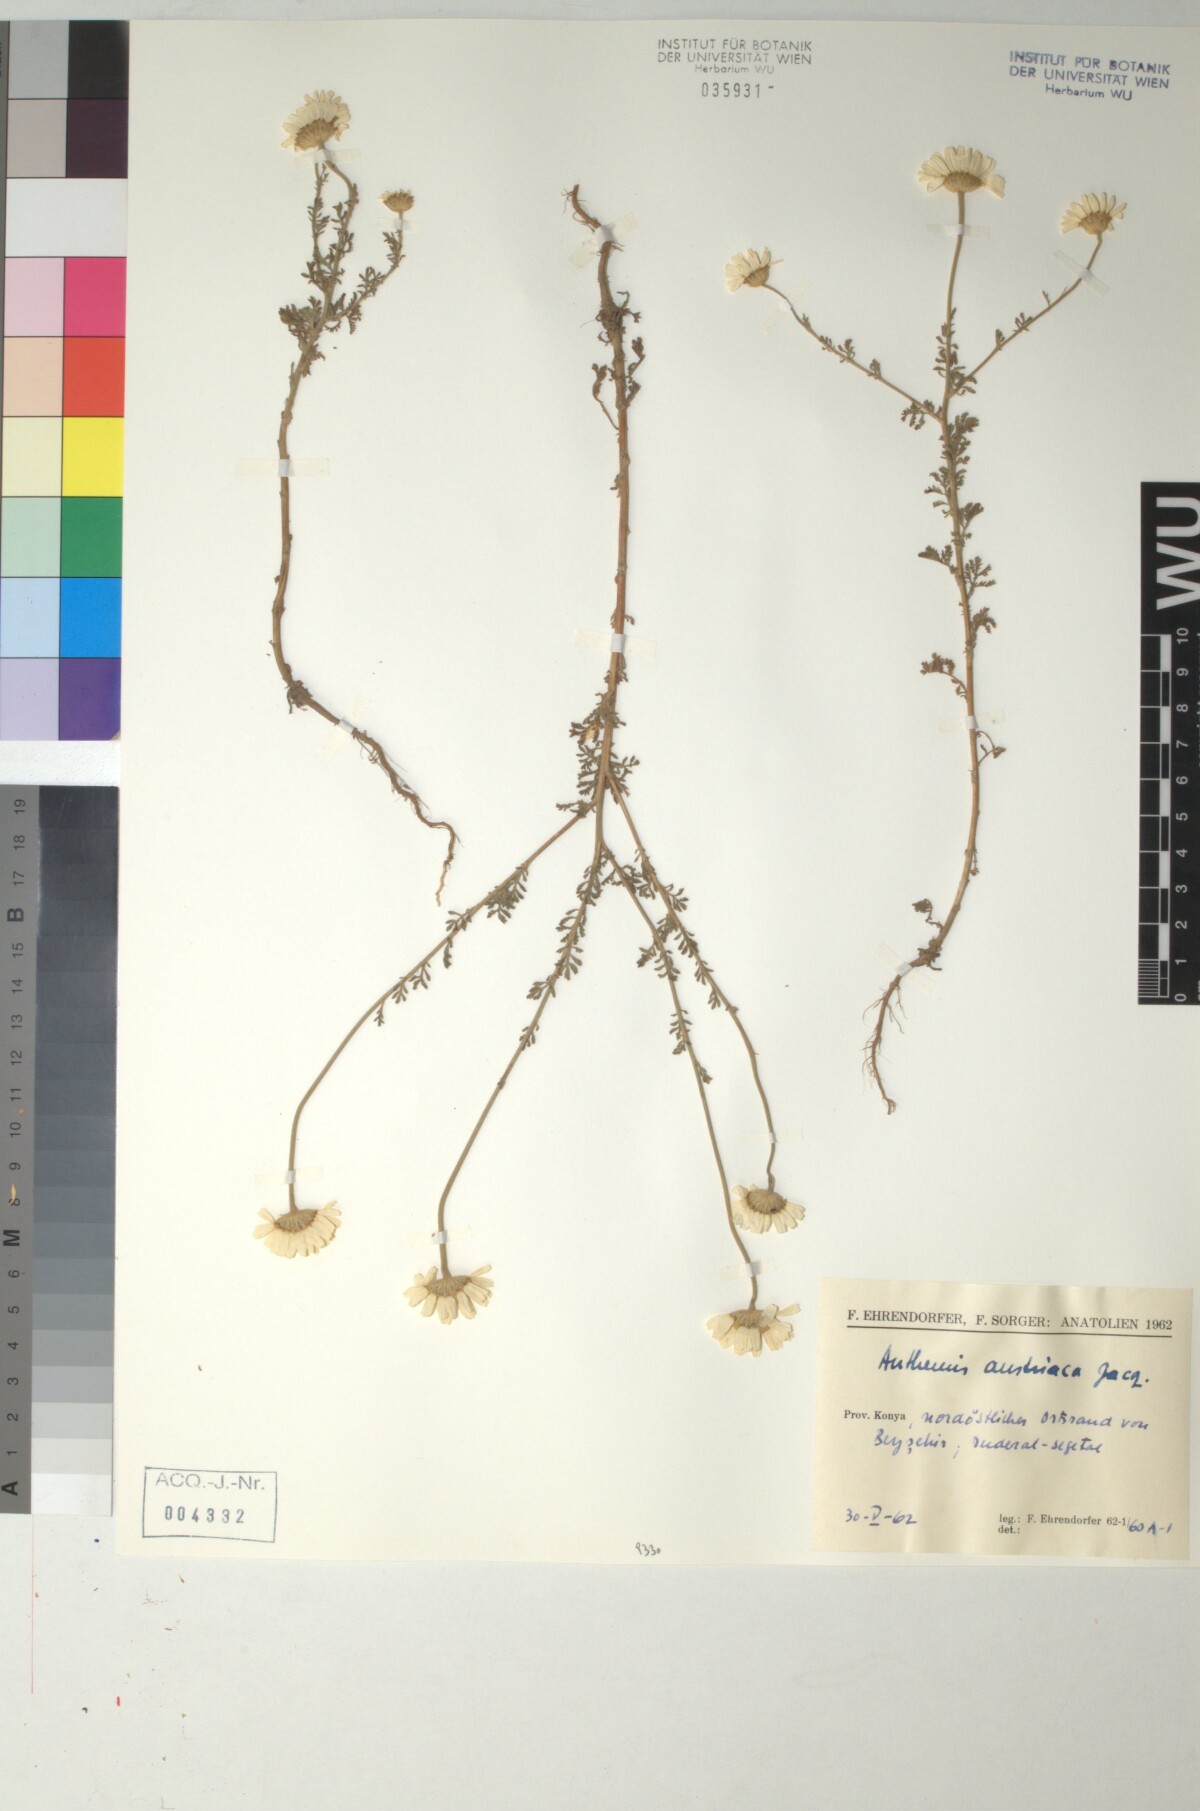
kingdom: Plantae
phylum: Tracheophyta
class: Magnoliopsida
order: Asterales
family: Asteraceae
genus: Cota
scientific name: Cota austriaca
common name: Austrian chamomile
